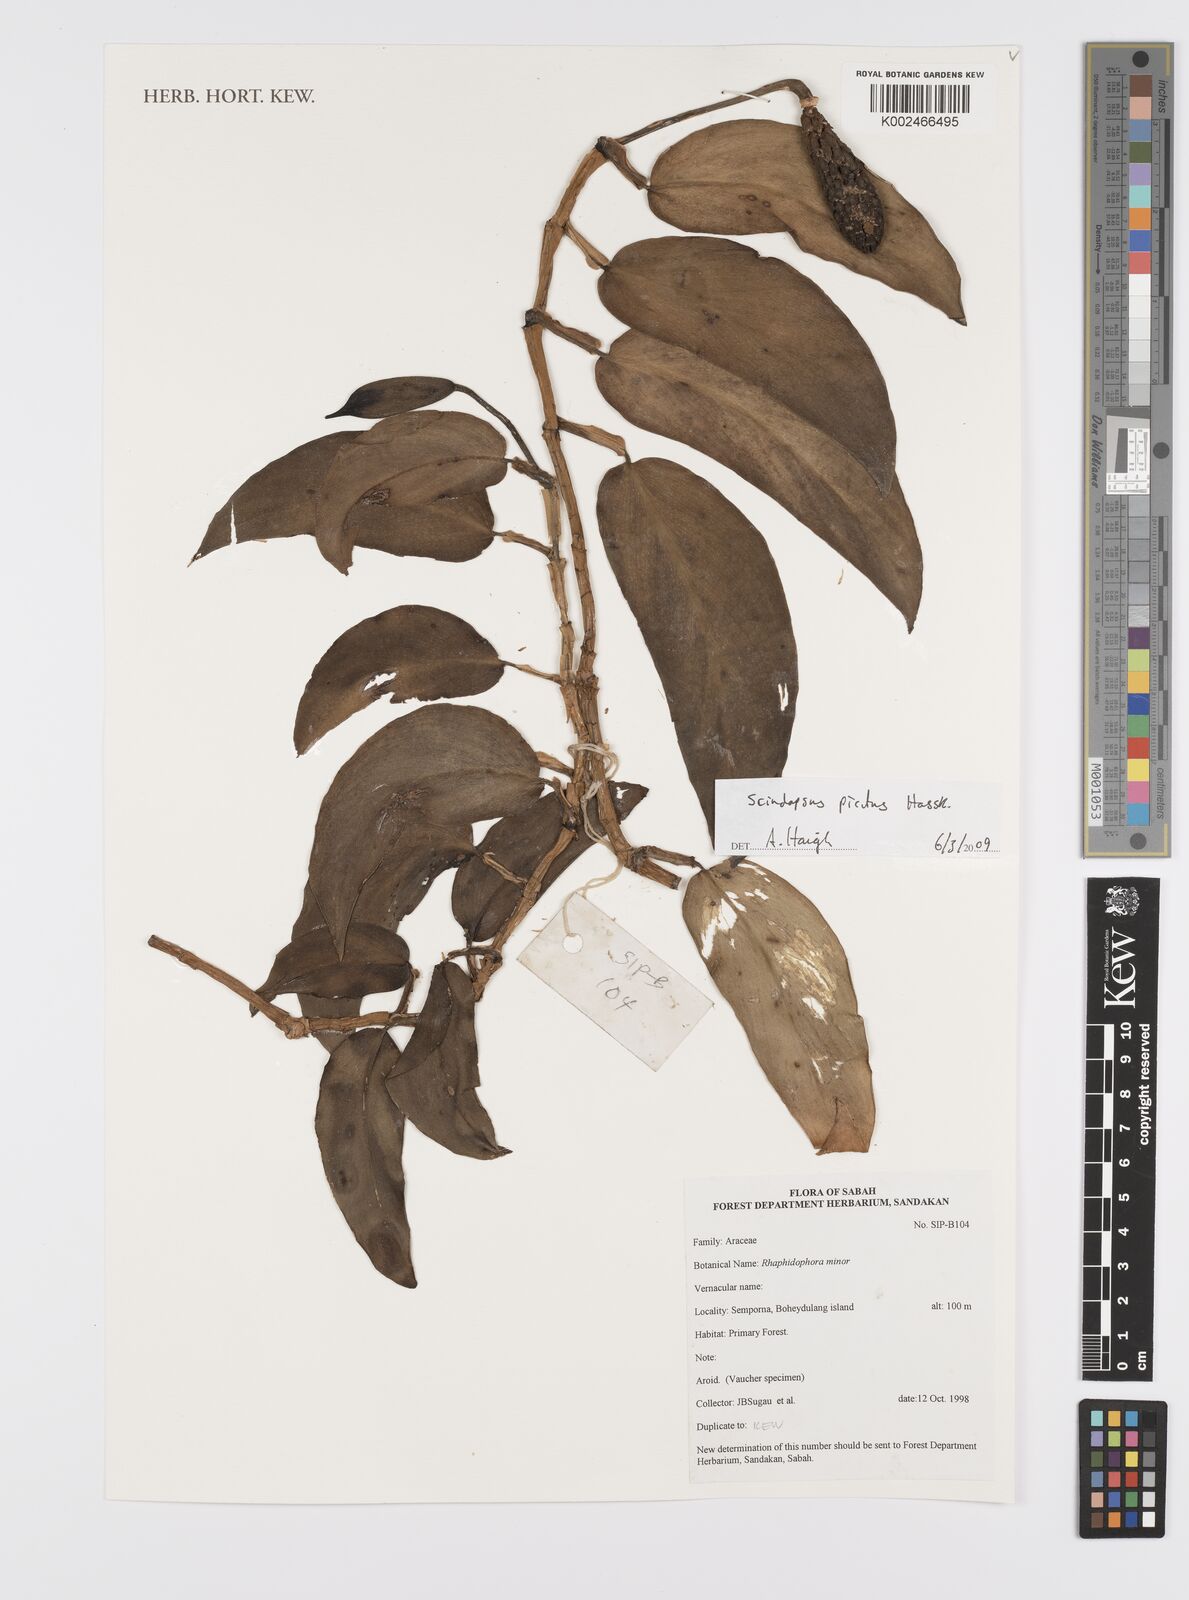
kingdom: Plantae
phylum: Tracheophyta
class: Liliopsida
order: Alismatales
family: Araceae
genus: Scindapsus
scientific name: Scindapsus pictus
